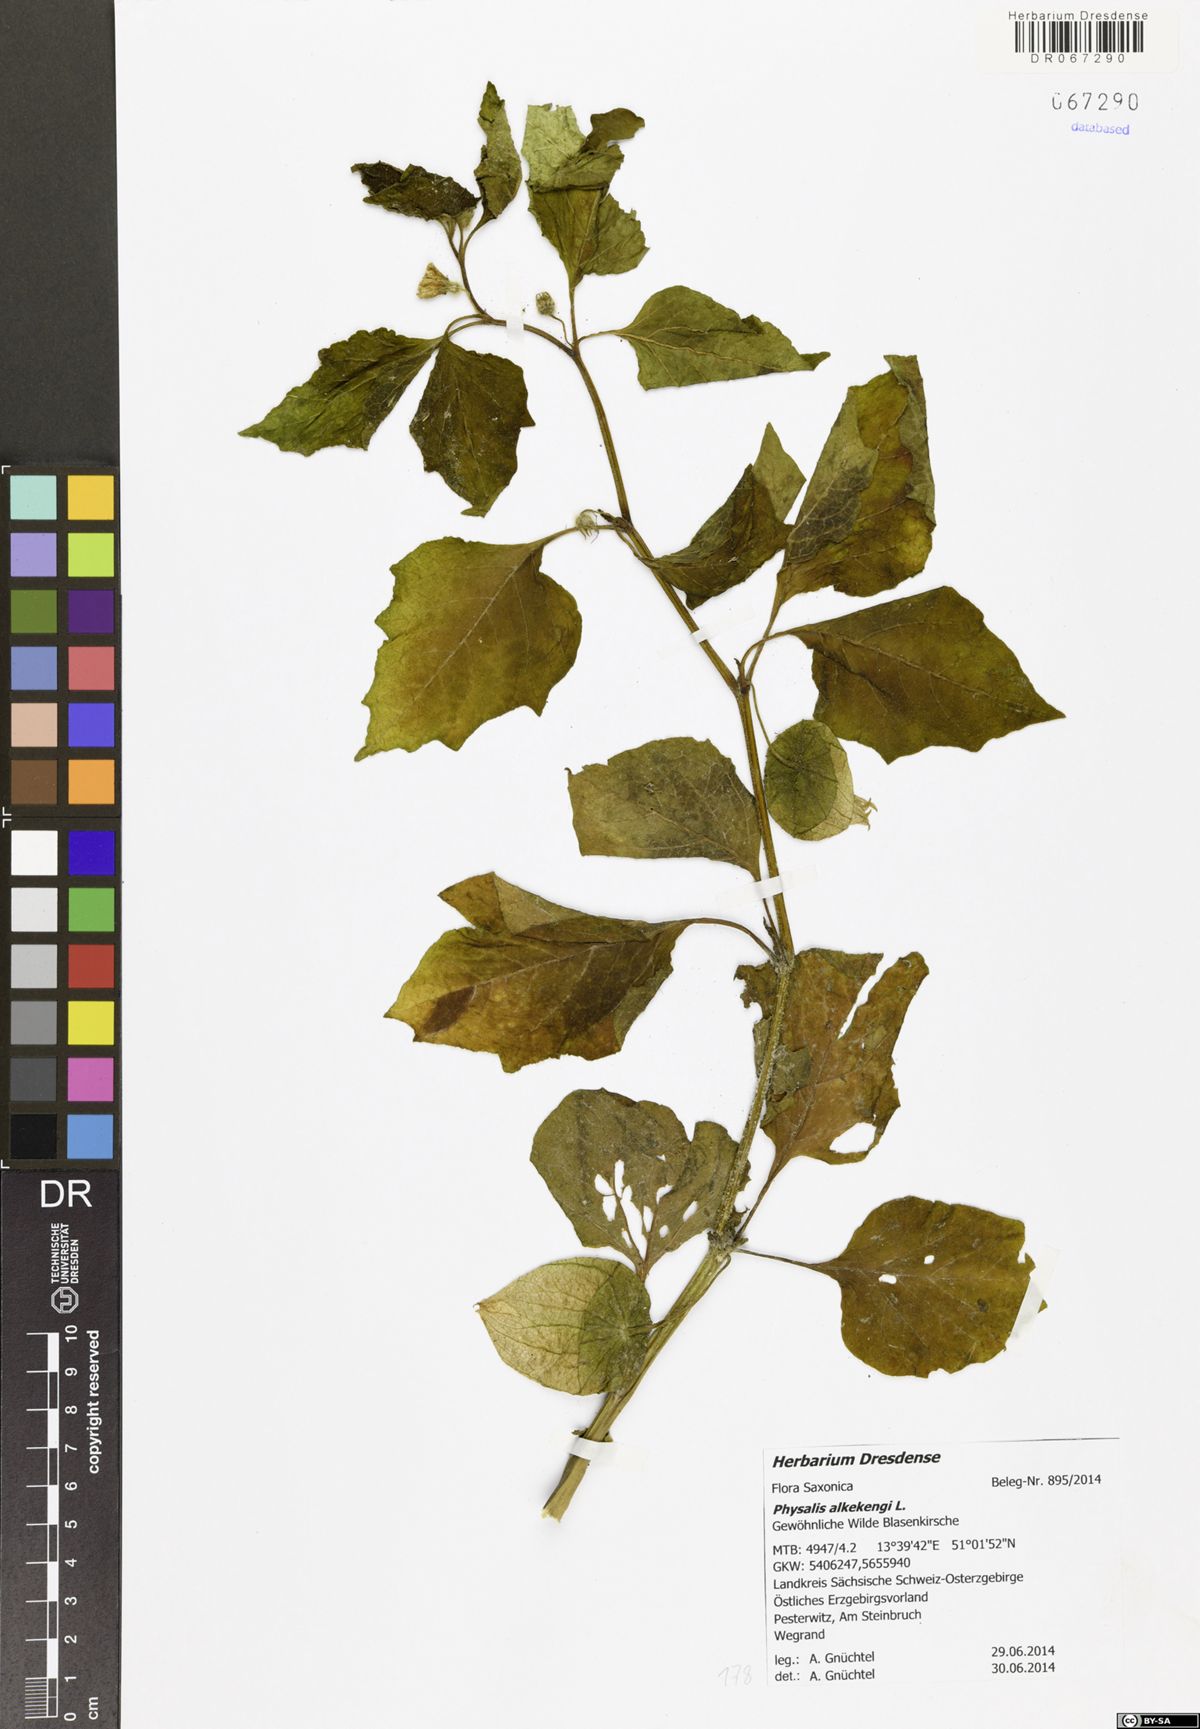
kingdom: Plantae
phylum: Tracheophyta
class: Magnoliopsida
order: Solanales
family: Solanaceae
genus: Alkekengi
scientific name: Alkekengi officinarum
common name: Japanese-lantern
